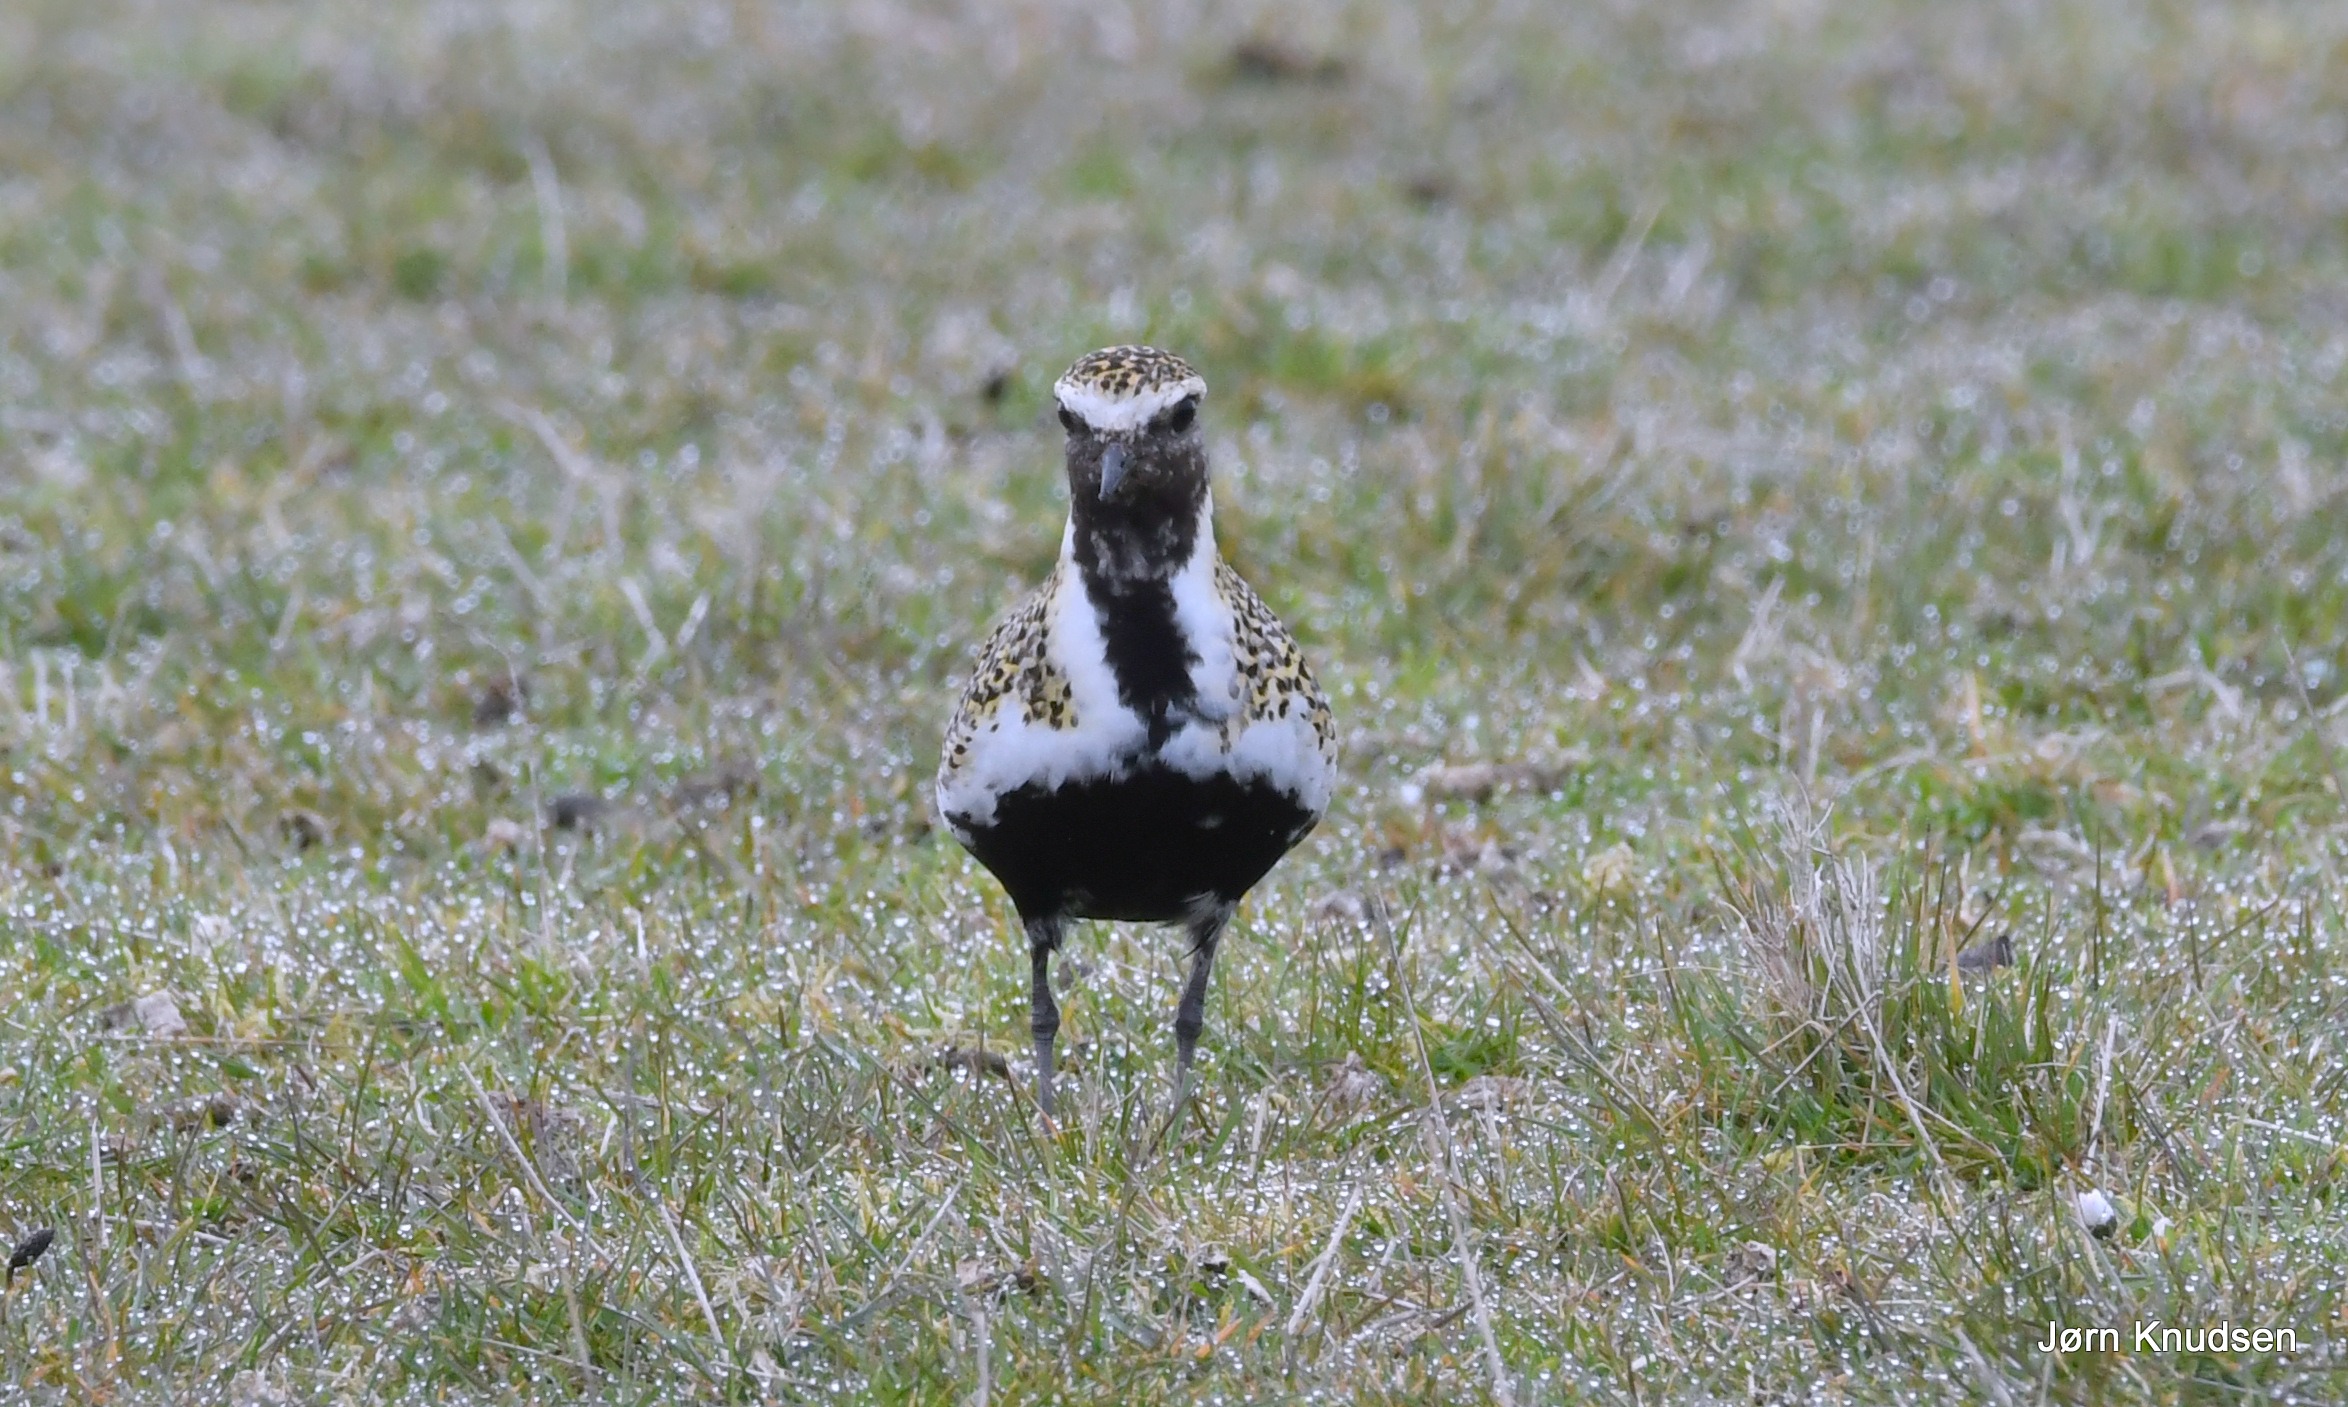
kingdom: Animalia
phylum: Chordata
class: Aves
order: Charadriiformes
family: Charadriidae
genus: Pluvialis
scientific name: Pluvialis apricaria
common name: Hjejle
